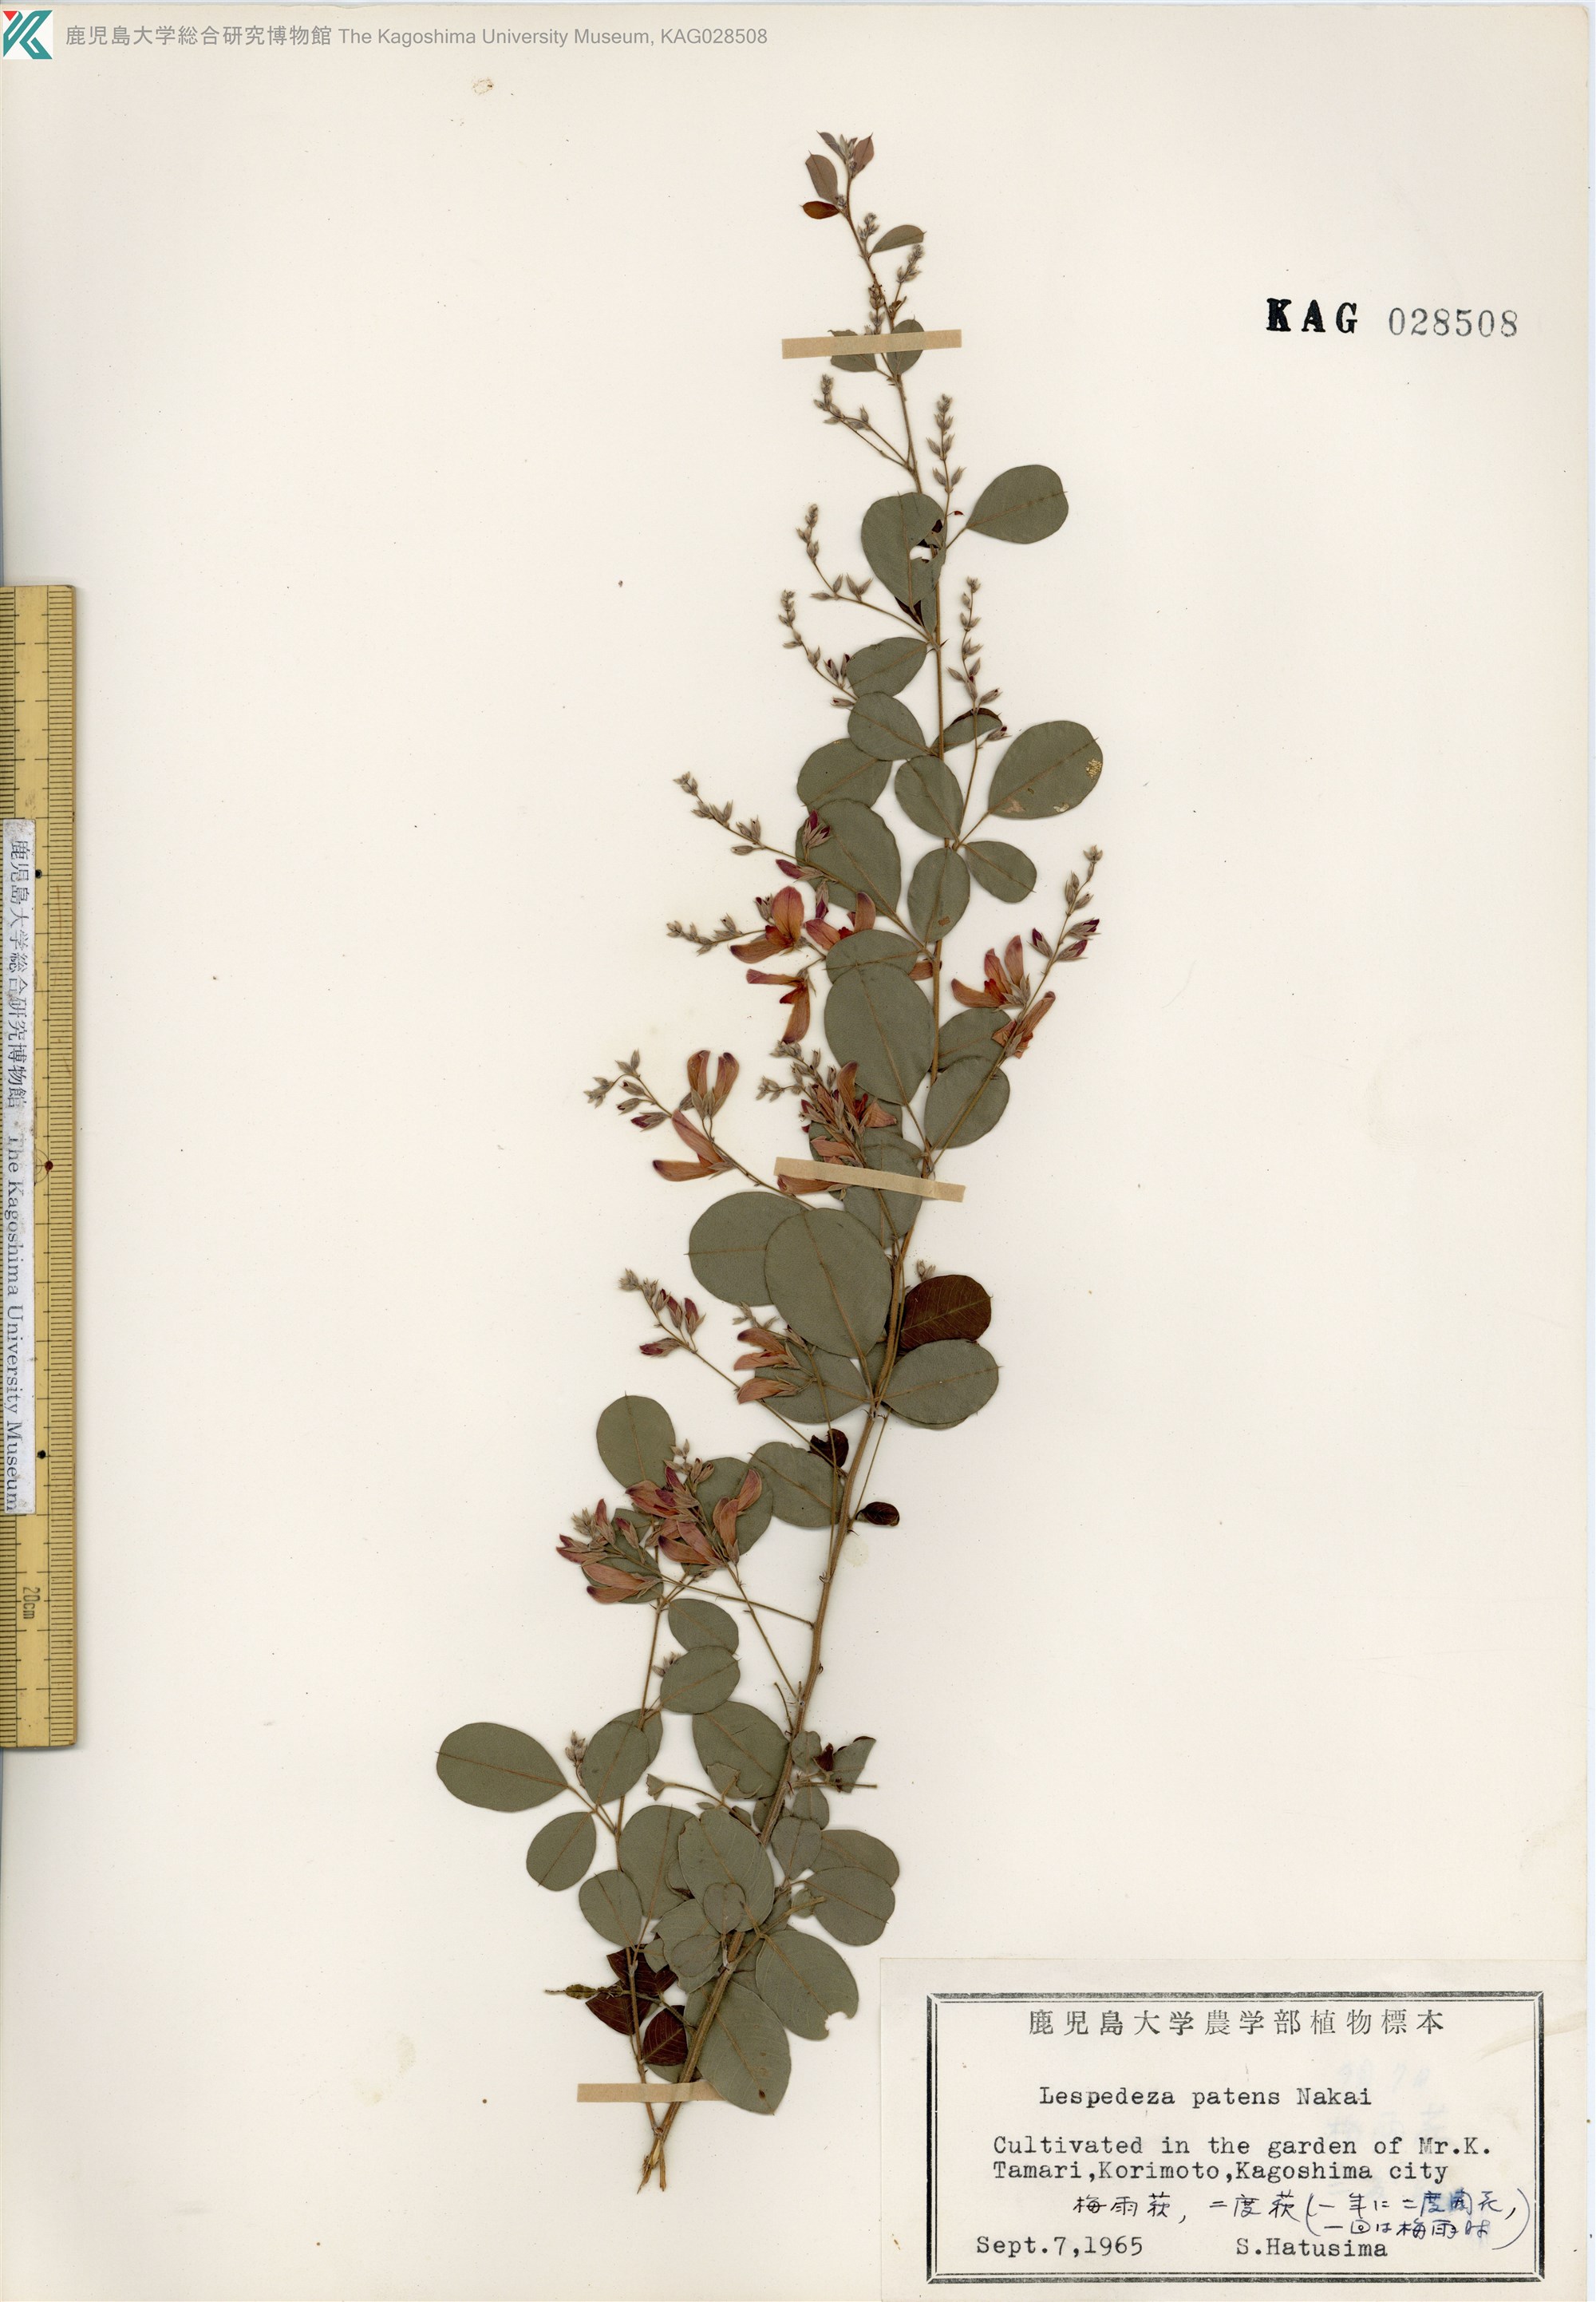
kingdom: Plantae
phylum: Tracheophyta
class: Magnoliopsida
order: Fabales
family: Fabaceae
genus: Lespedeza
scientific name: Lespedeza thunbergii
